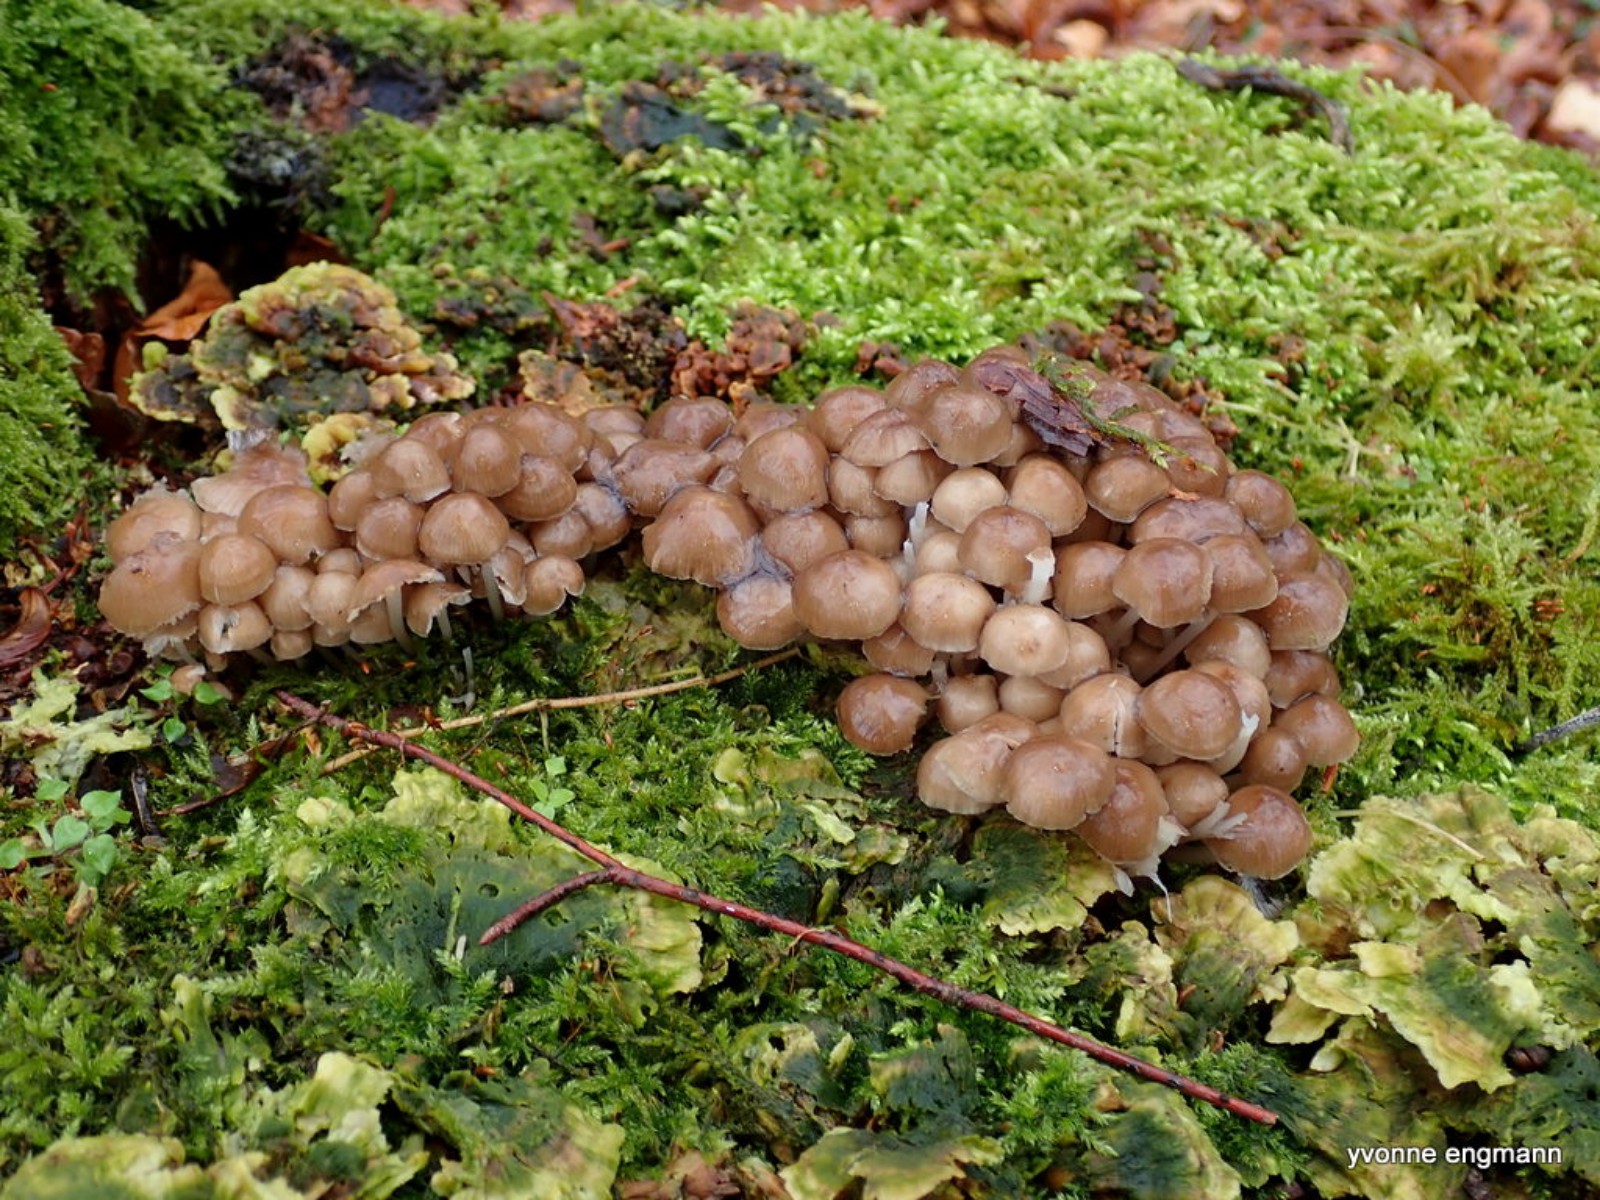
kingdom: Fungi
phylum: Basidiomycota
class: Agaricomycetes
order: Agaricales
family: Mycenaceae
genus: Mycena
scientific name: Mycena tintinnabulum
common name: vinter-huesvamp
